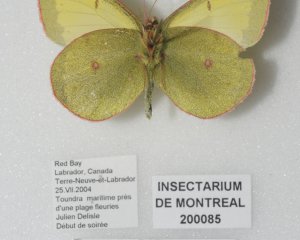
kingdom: Animalia
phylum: Arthropoda
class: Insecta
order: Lepidoptera
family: Pieridae
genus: Colias
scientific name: Colias pelidne
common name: Pelidne Sulphur
